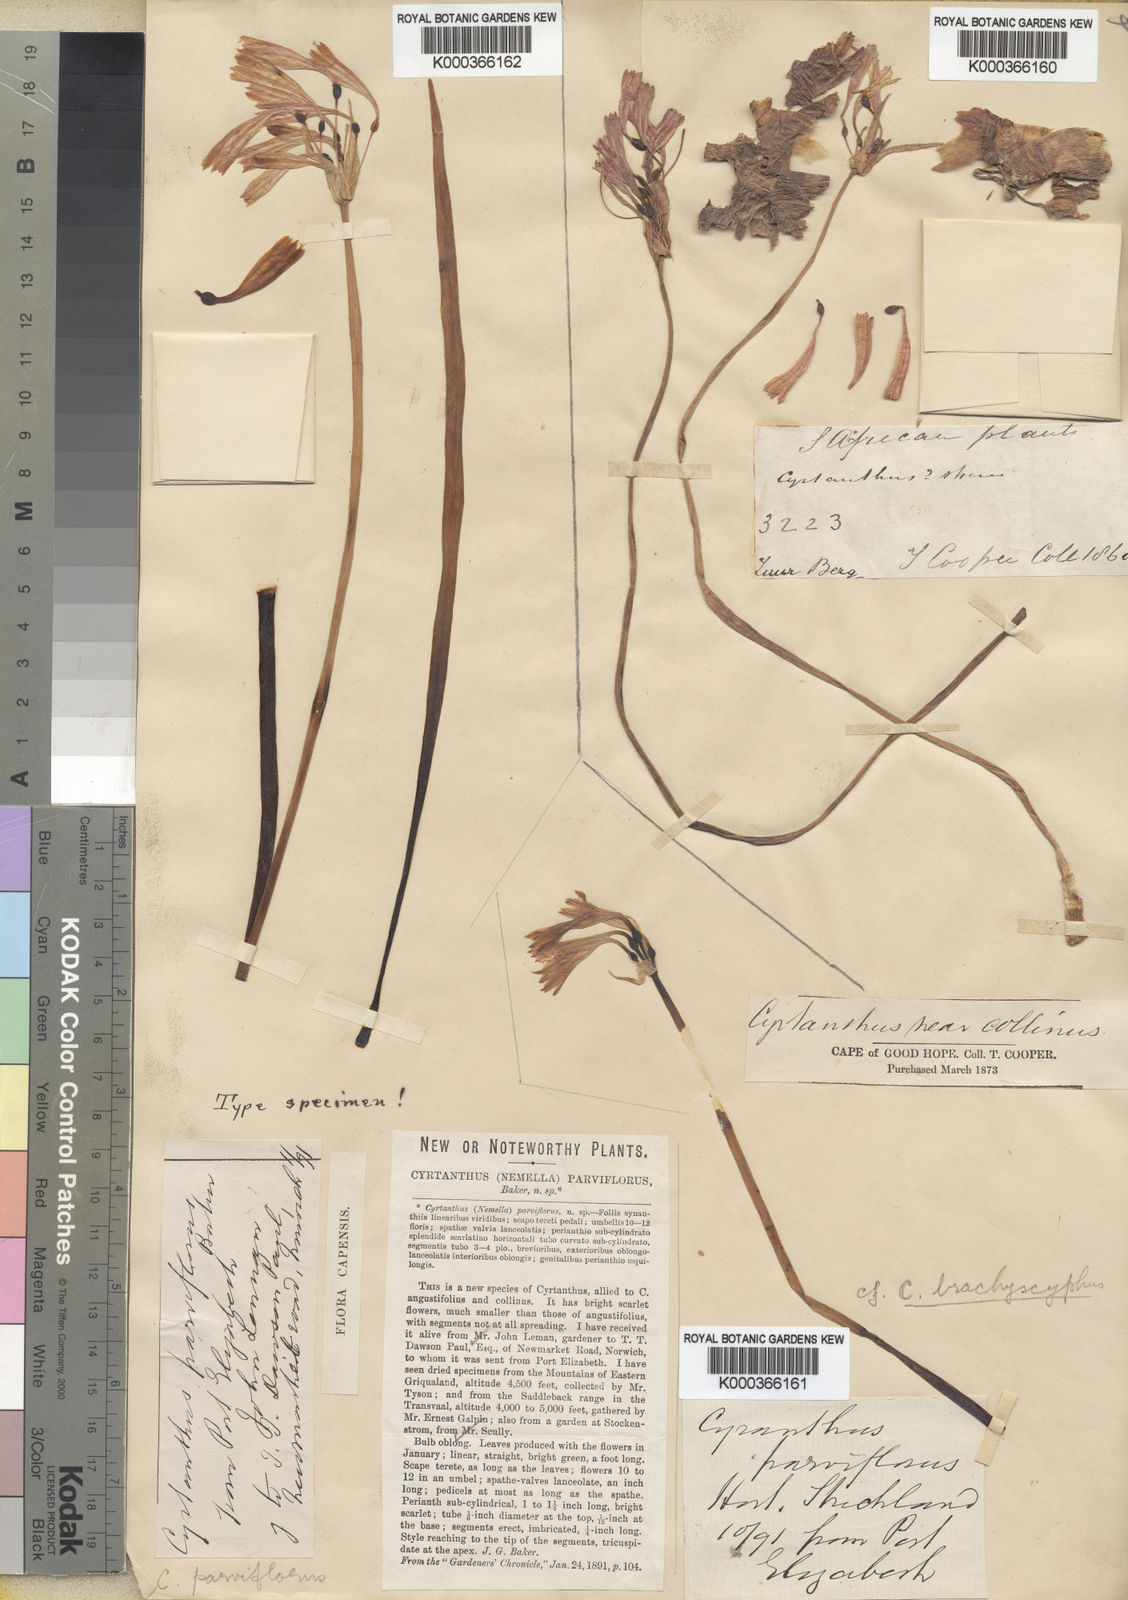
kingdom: Plantae
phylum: Tracheophyta
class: Liliopsida
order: Asparagales
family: Amaryllidaceae
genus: Cyrtanthus
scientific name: Cyrtanthus bicolor
